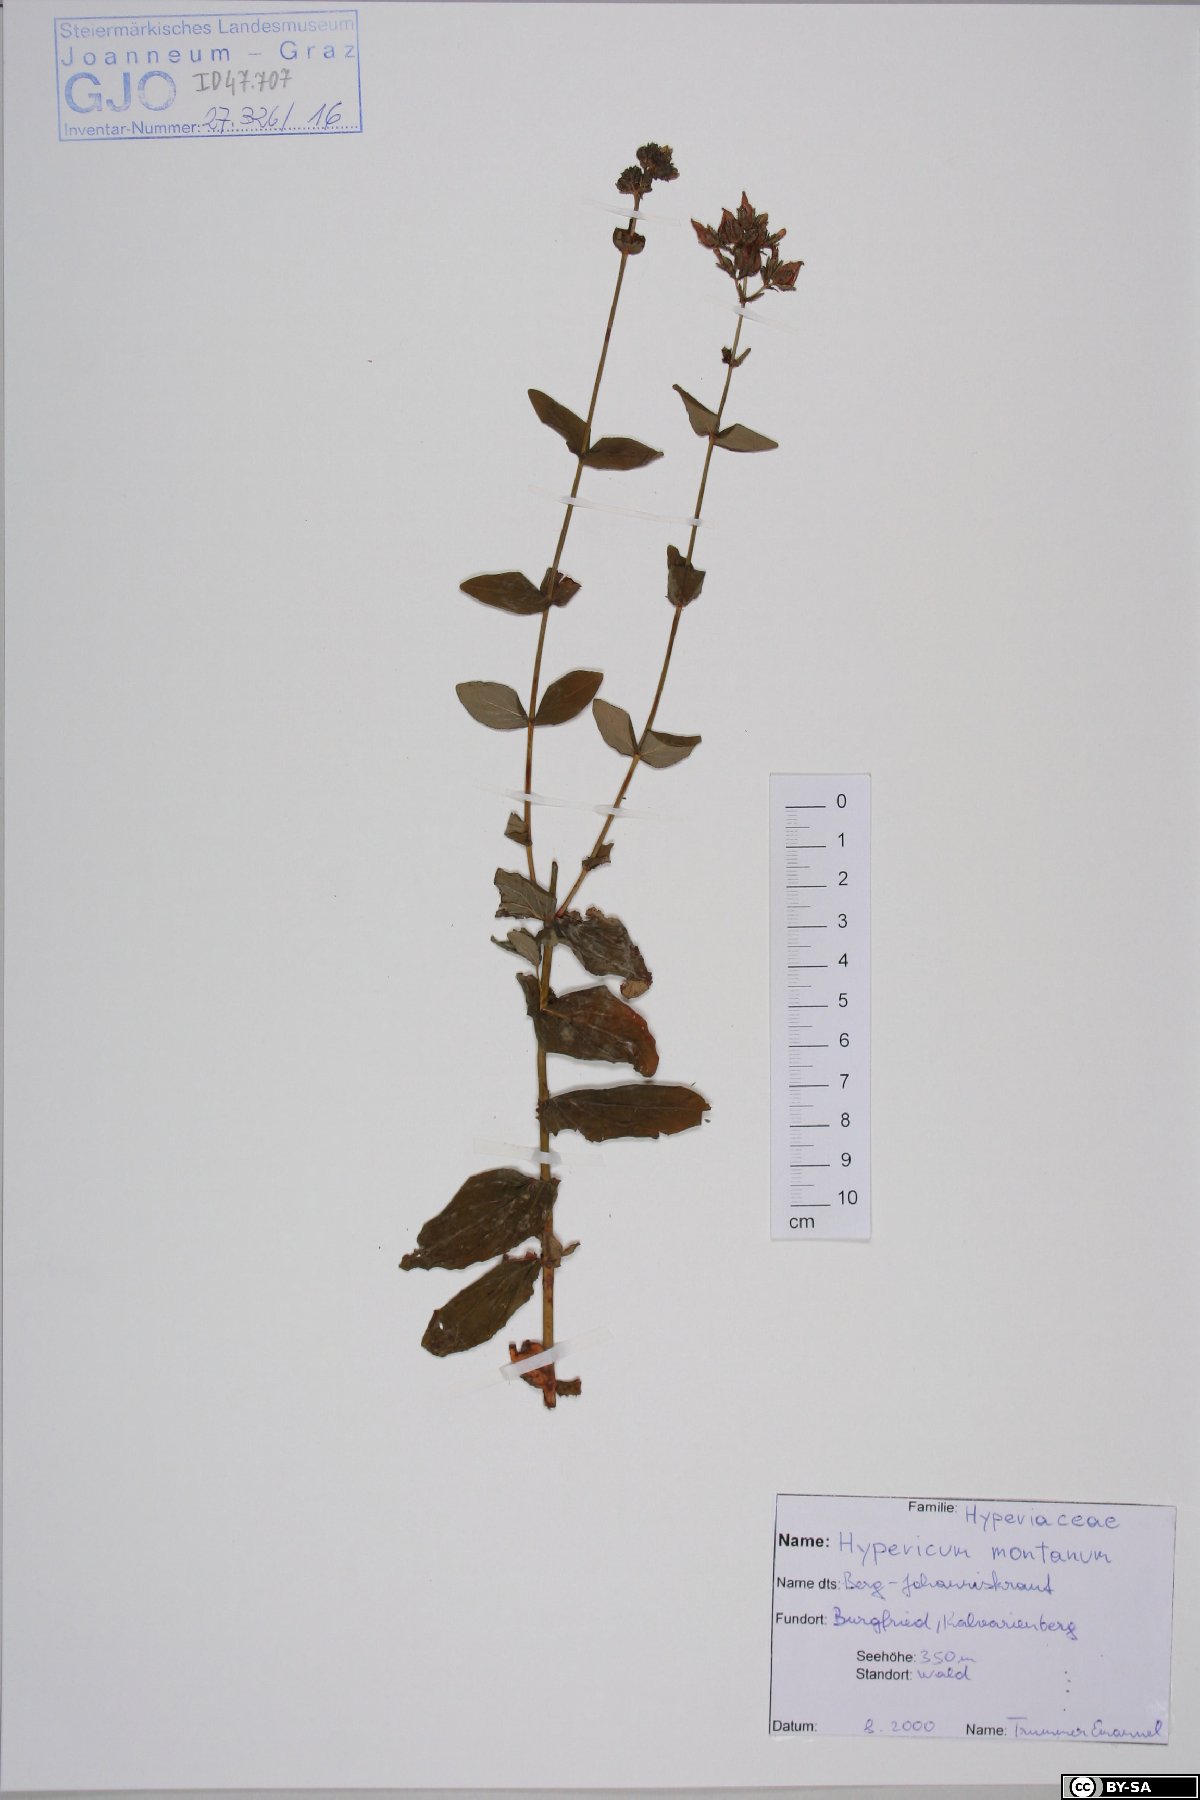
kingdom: Plantae
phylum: Tracheophyta
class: Magnoliopsida
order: Malpighiales
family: Hypericaceae
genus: Hypericum
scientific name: Hypericum montanum
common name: Pale st. john's-wort
